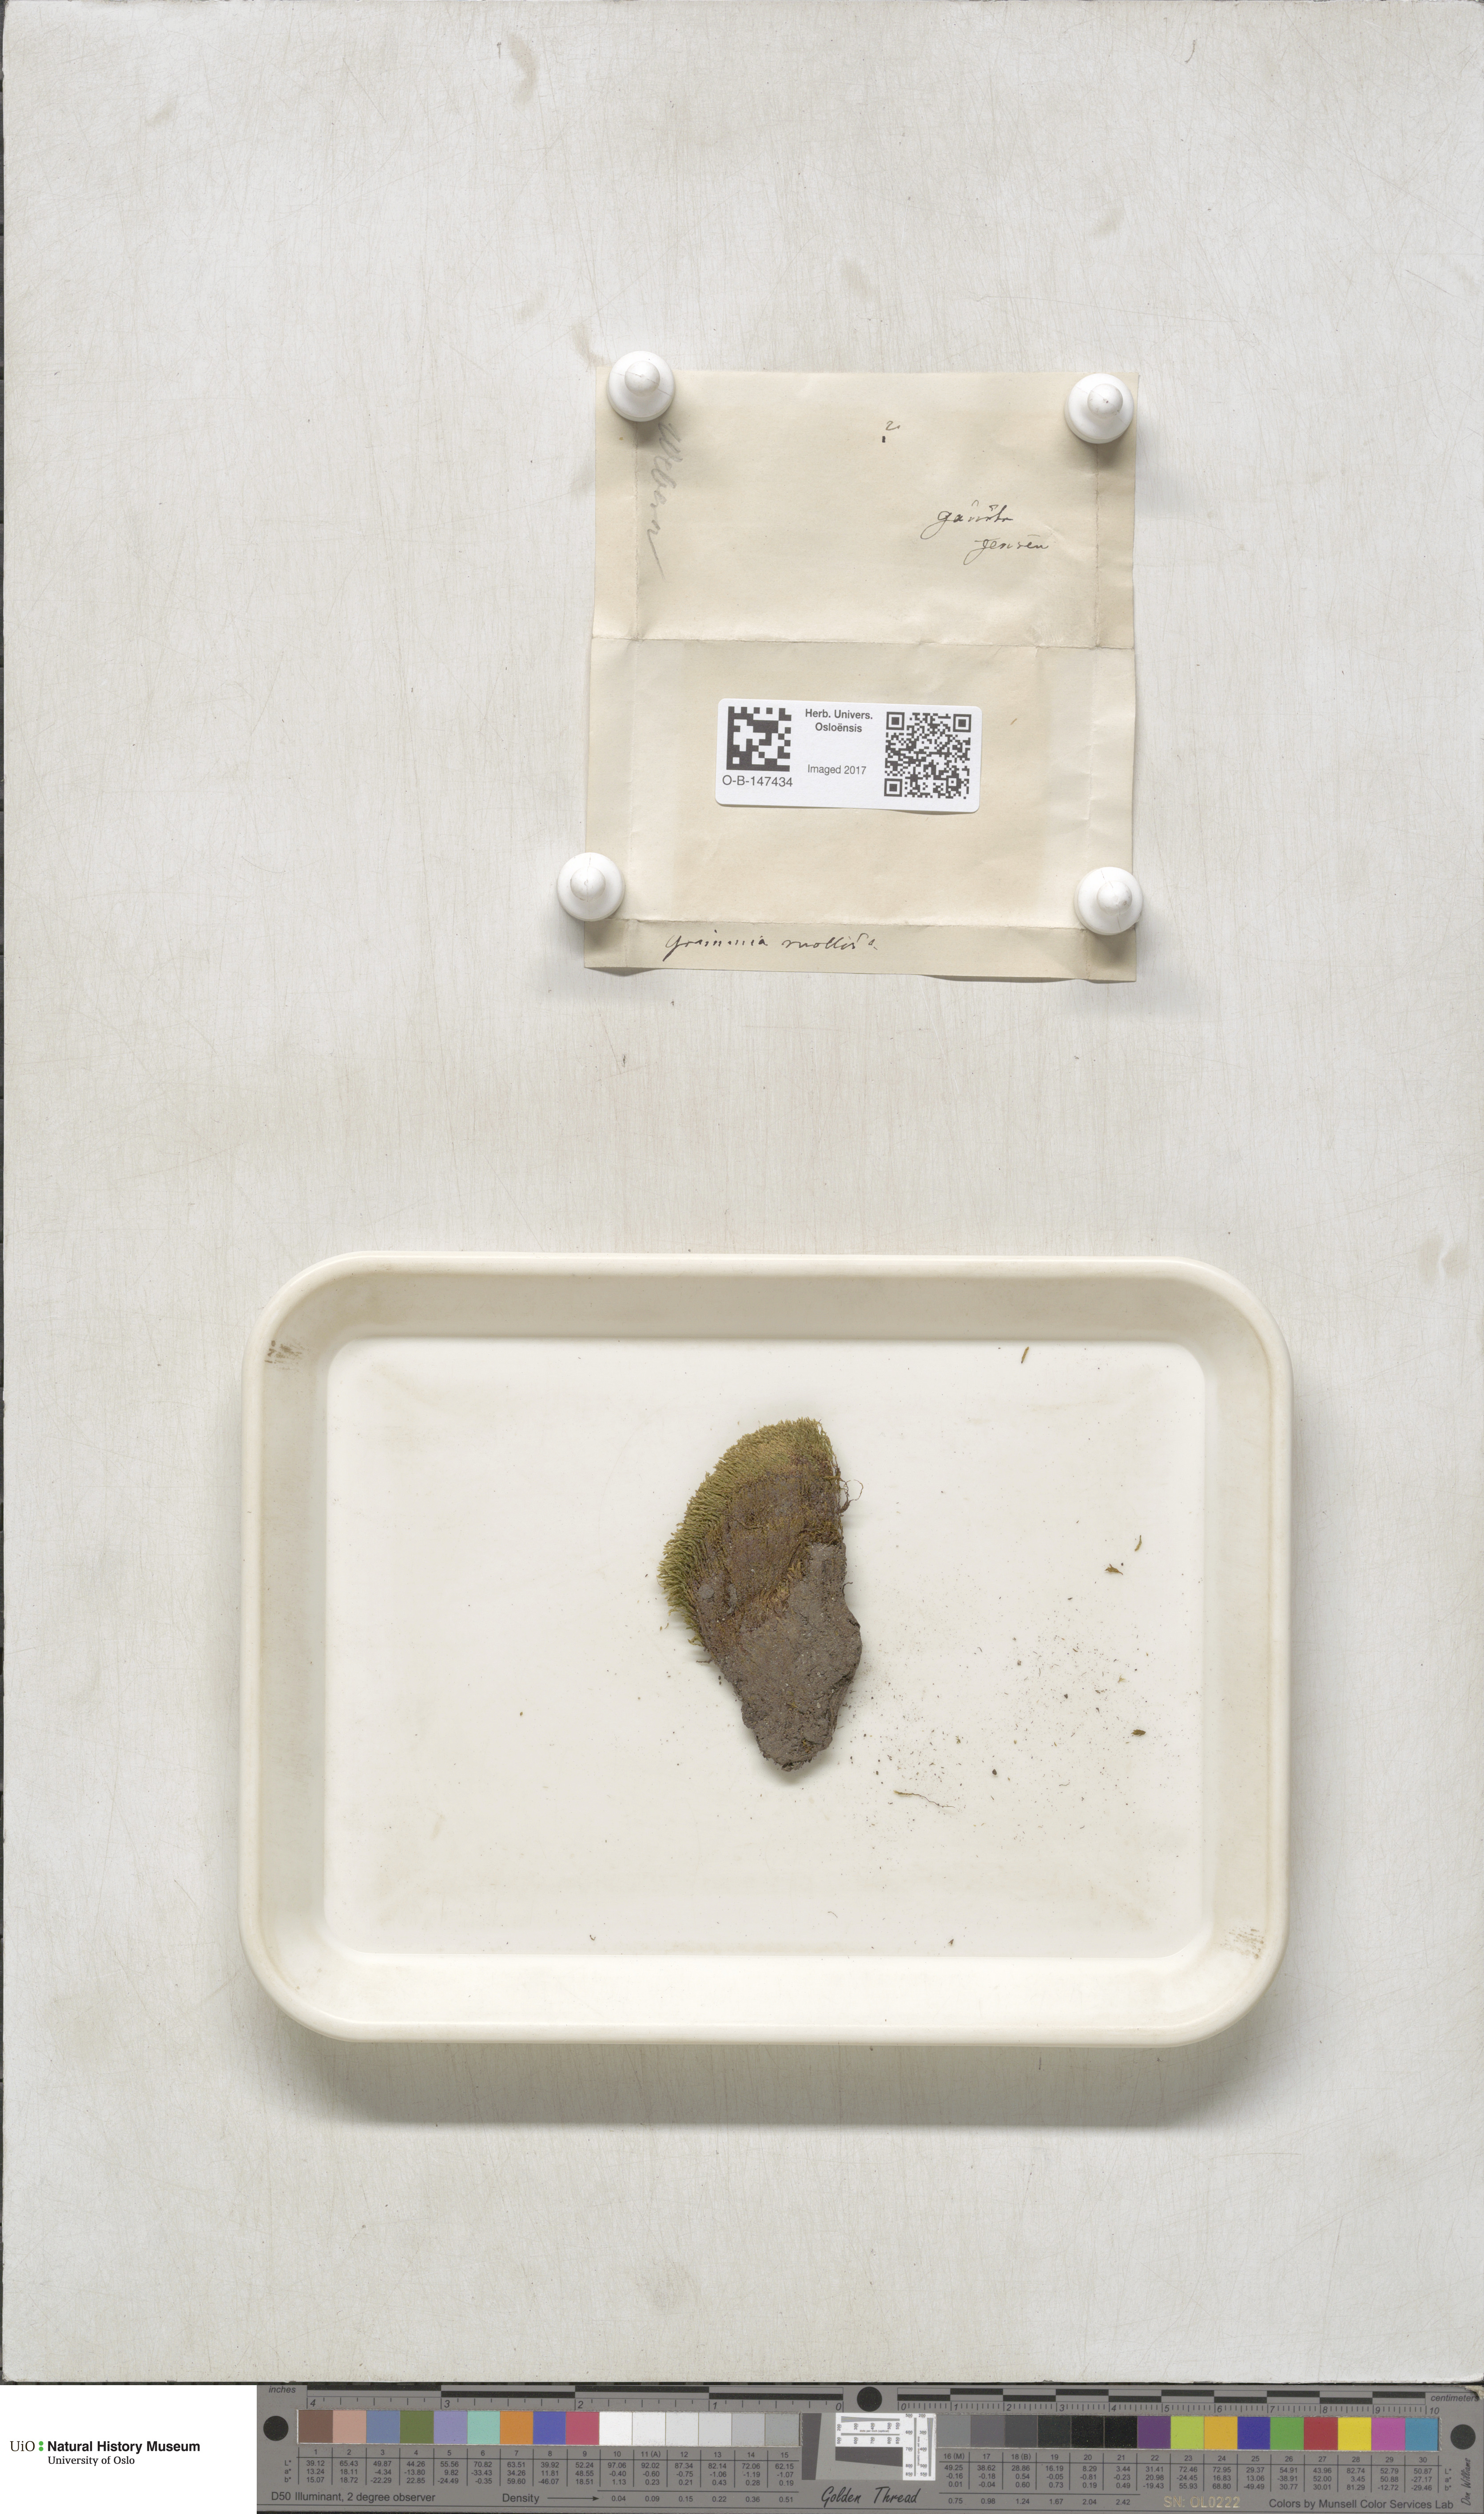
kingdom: Plantae
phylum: Bryophyta
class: Bryopsida
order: Bryales
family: Mniaceae
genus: Pohlia
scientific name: Pohlia
